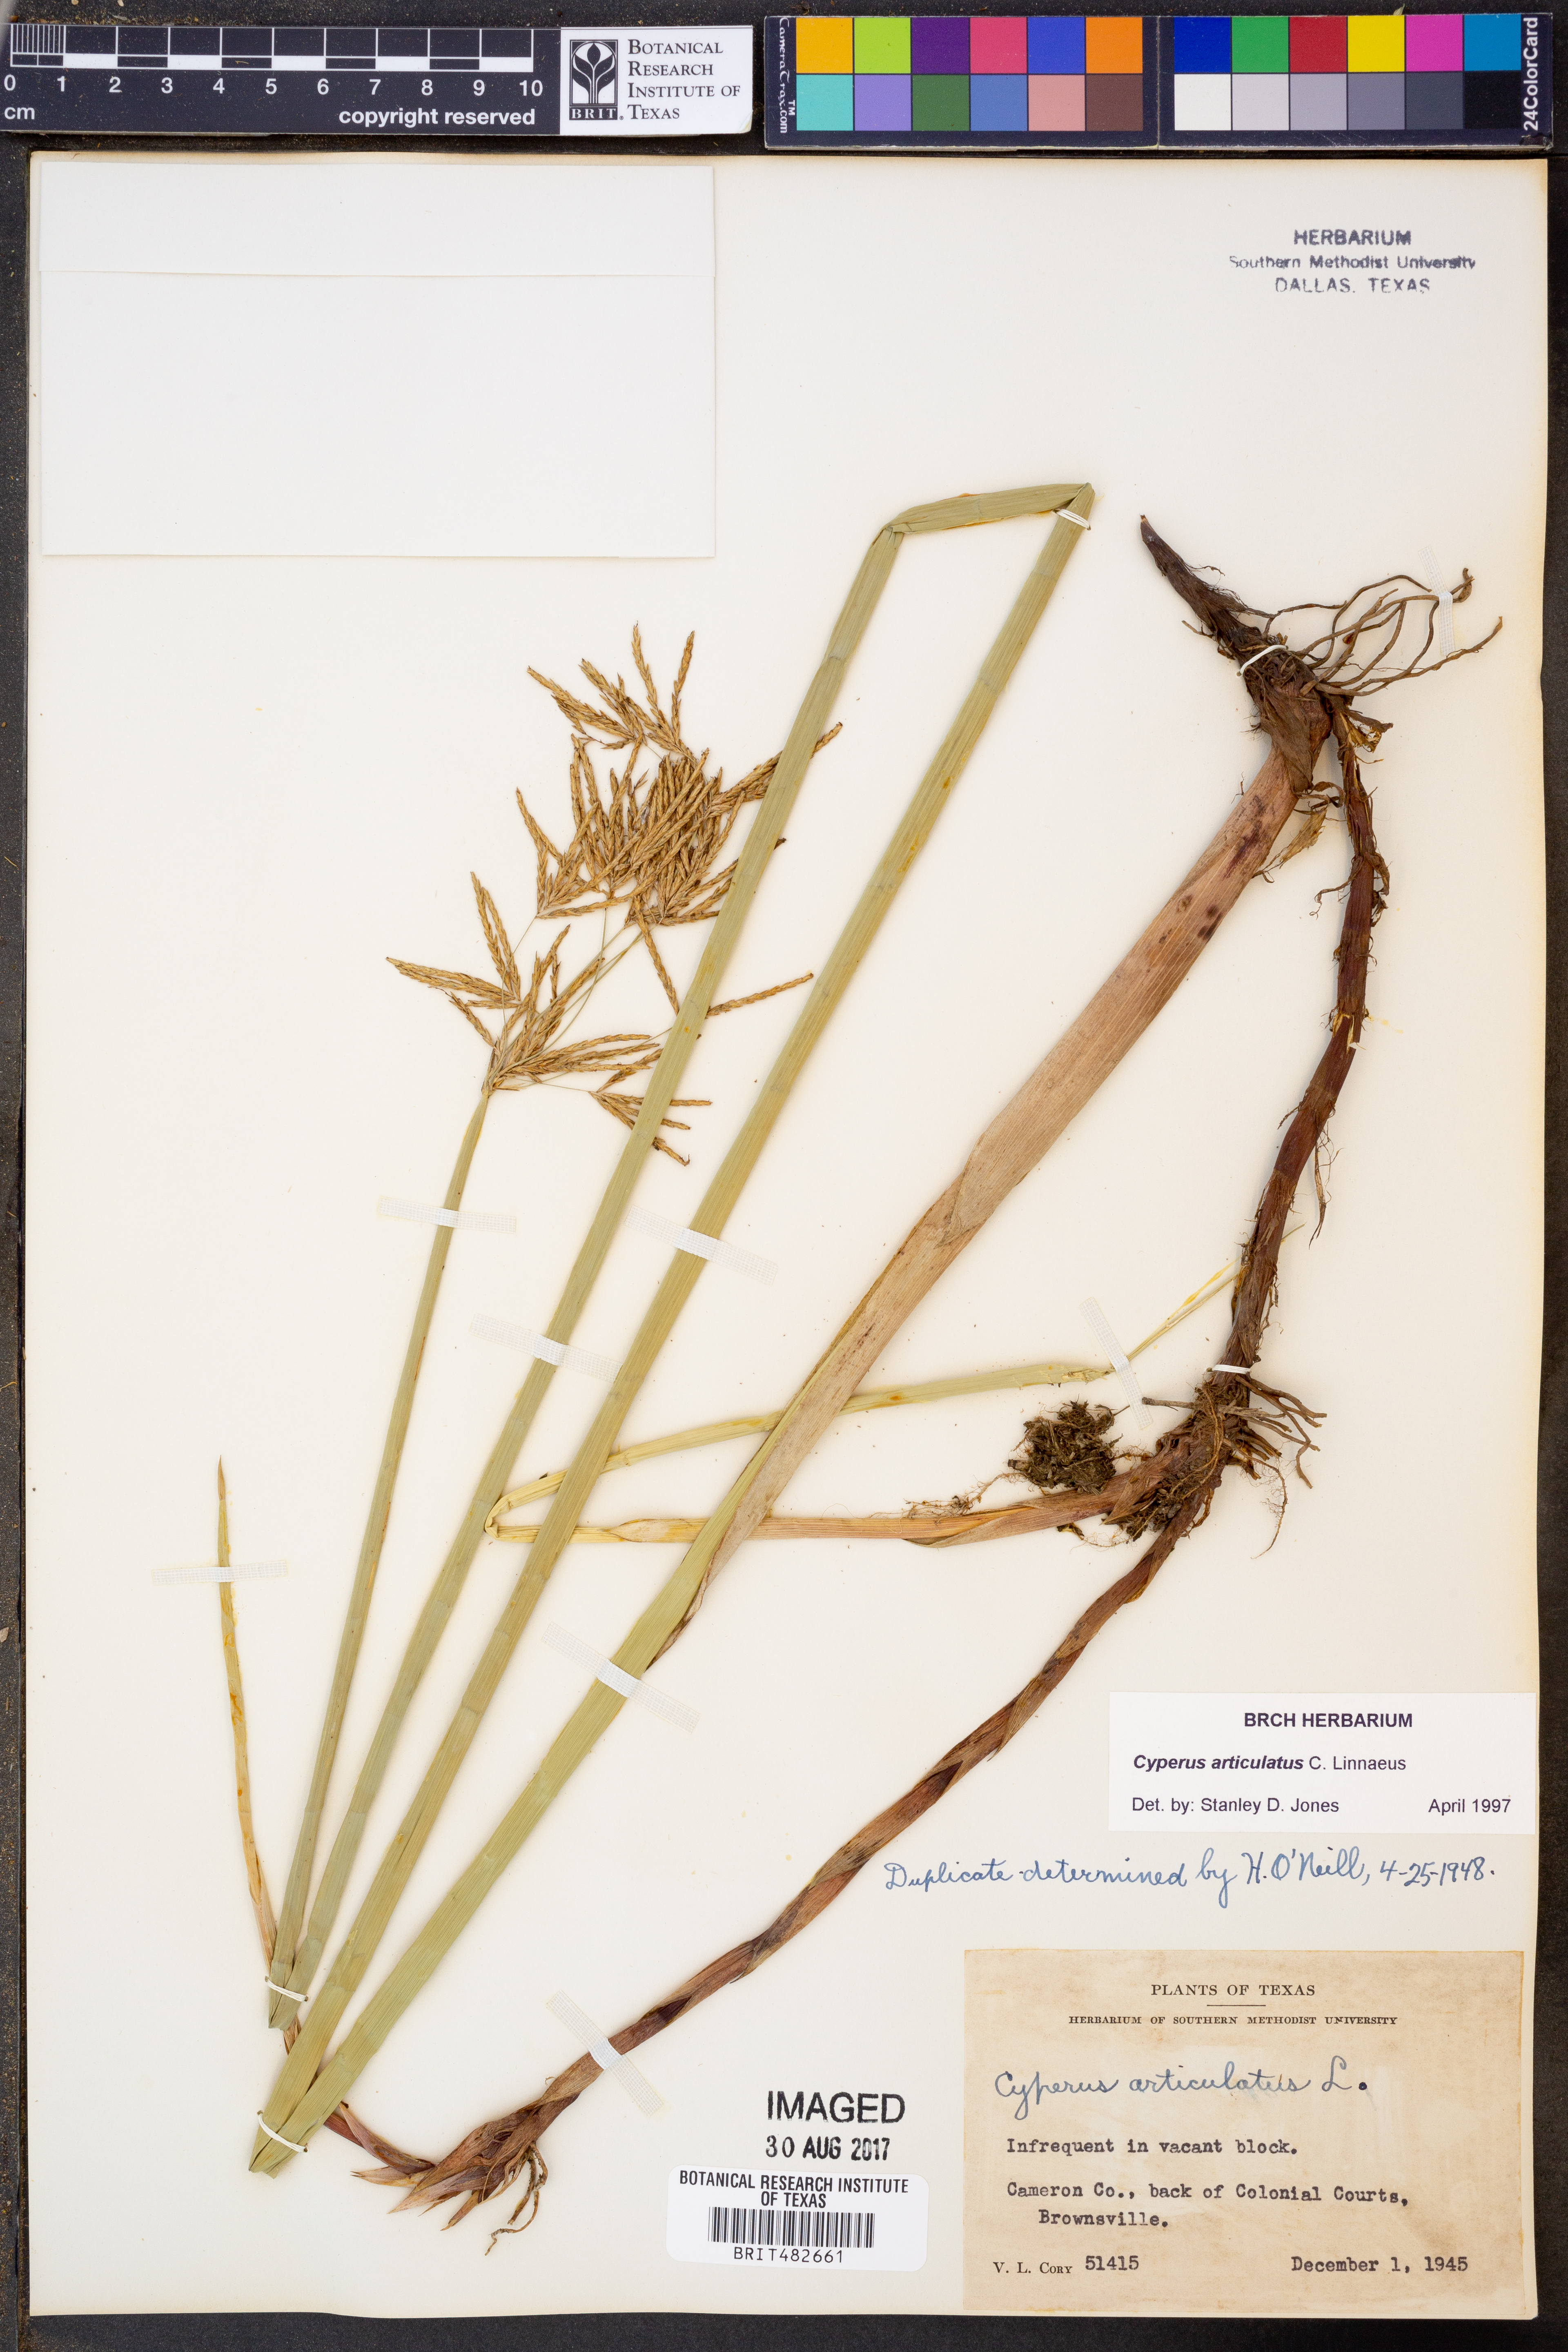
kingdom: Plantae
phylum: Tracheophyta
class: Liliopsida
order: Poales
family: Cyperaceae
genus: Cyperus
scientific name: Cyperus articulatus
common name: Jointed flatsedge
